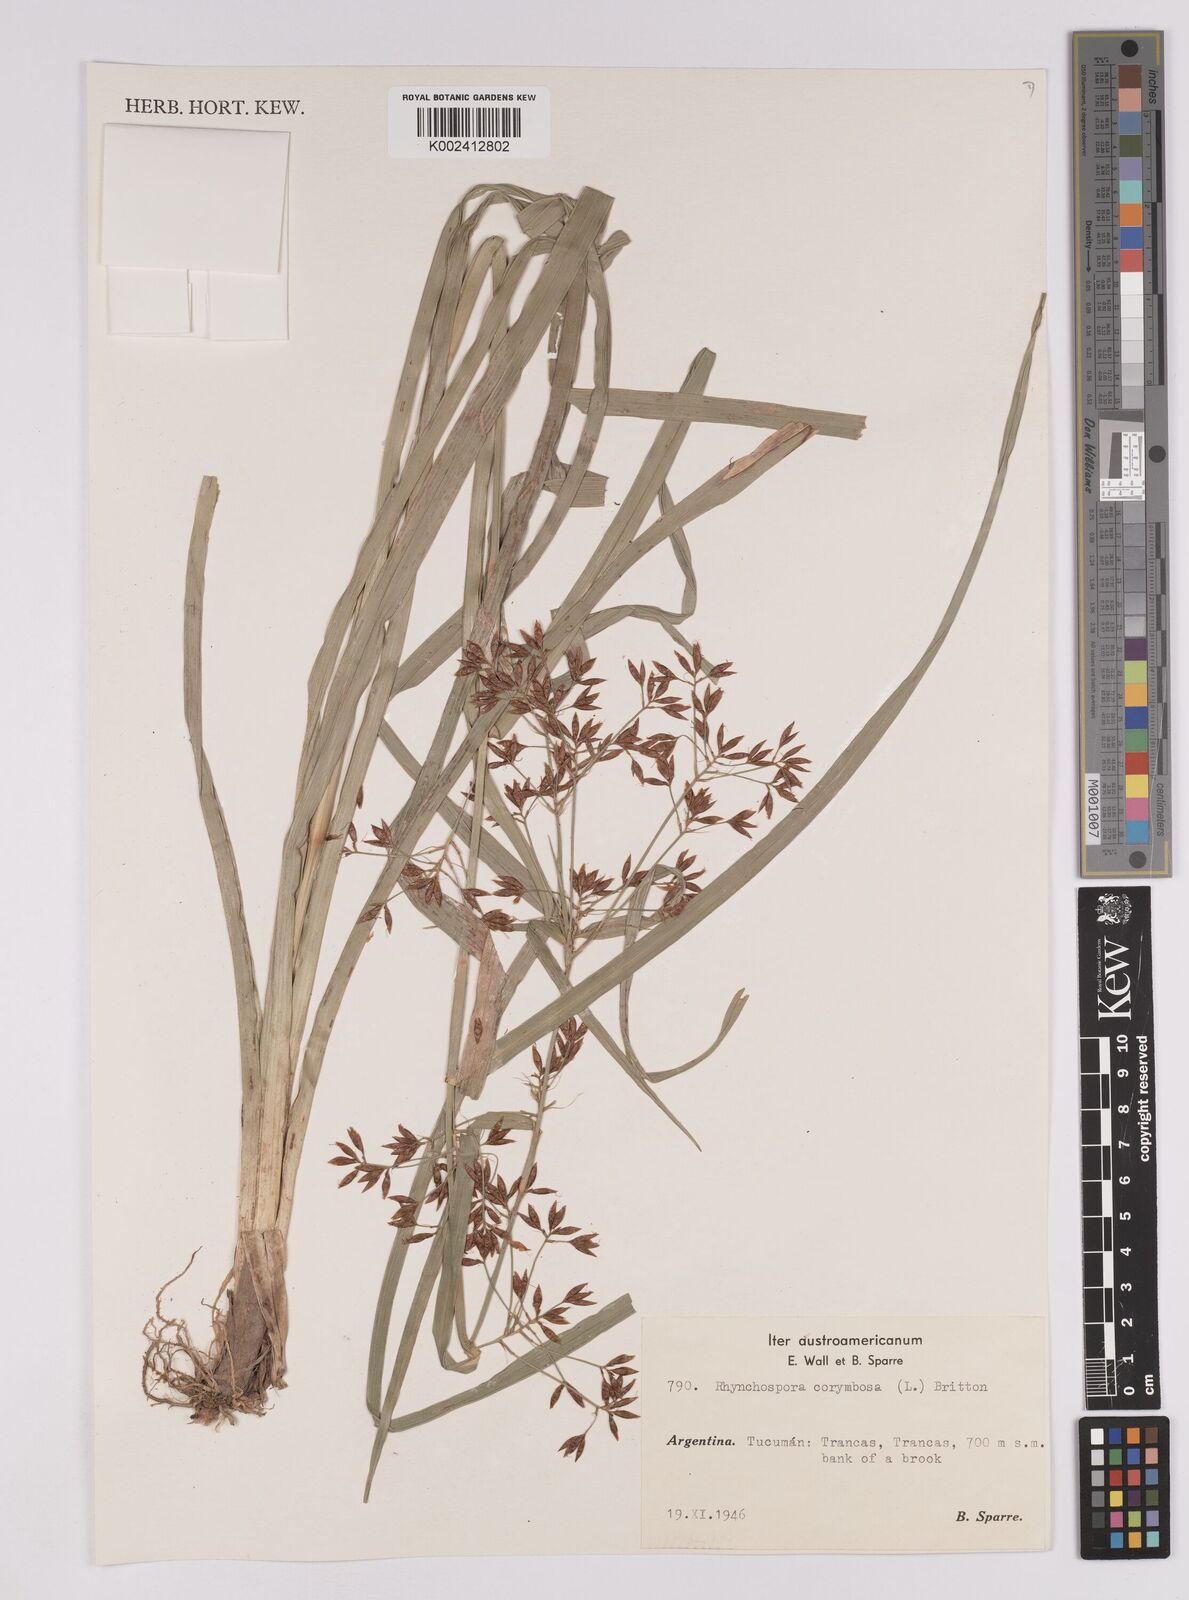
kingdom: Plantae
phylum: Tracheophyta
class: Liliopsida
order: Poales
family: Cyperaceae
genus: Rhynchospora
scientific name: Rhynchospora corymbosa
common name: Golden beak sedge
